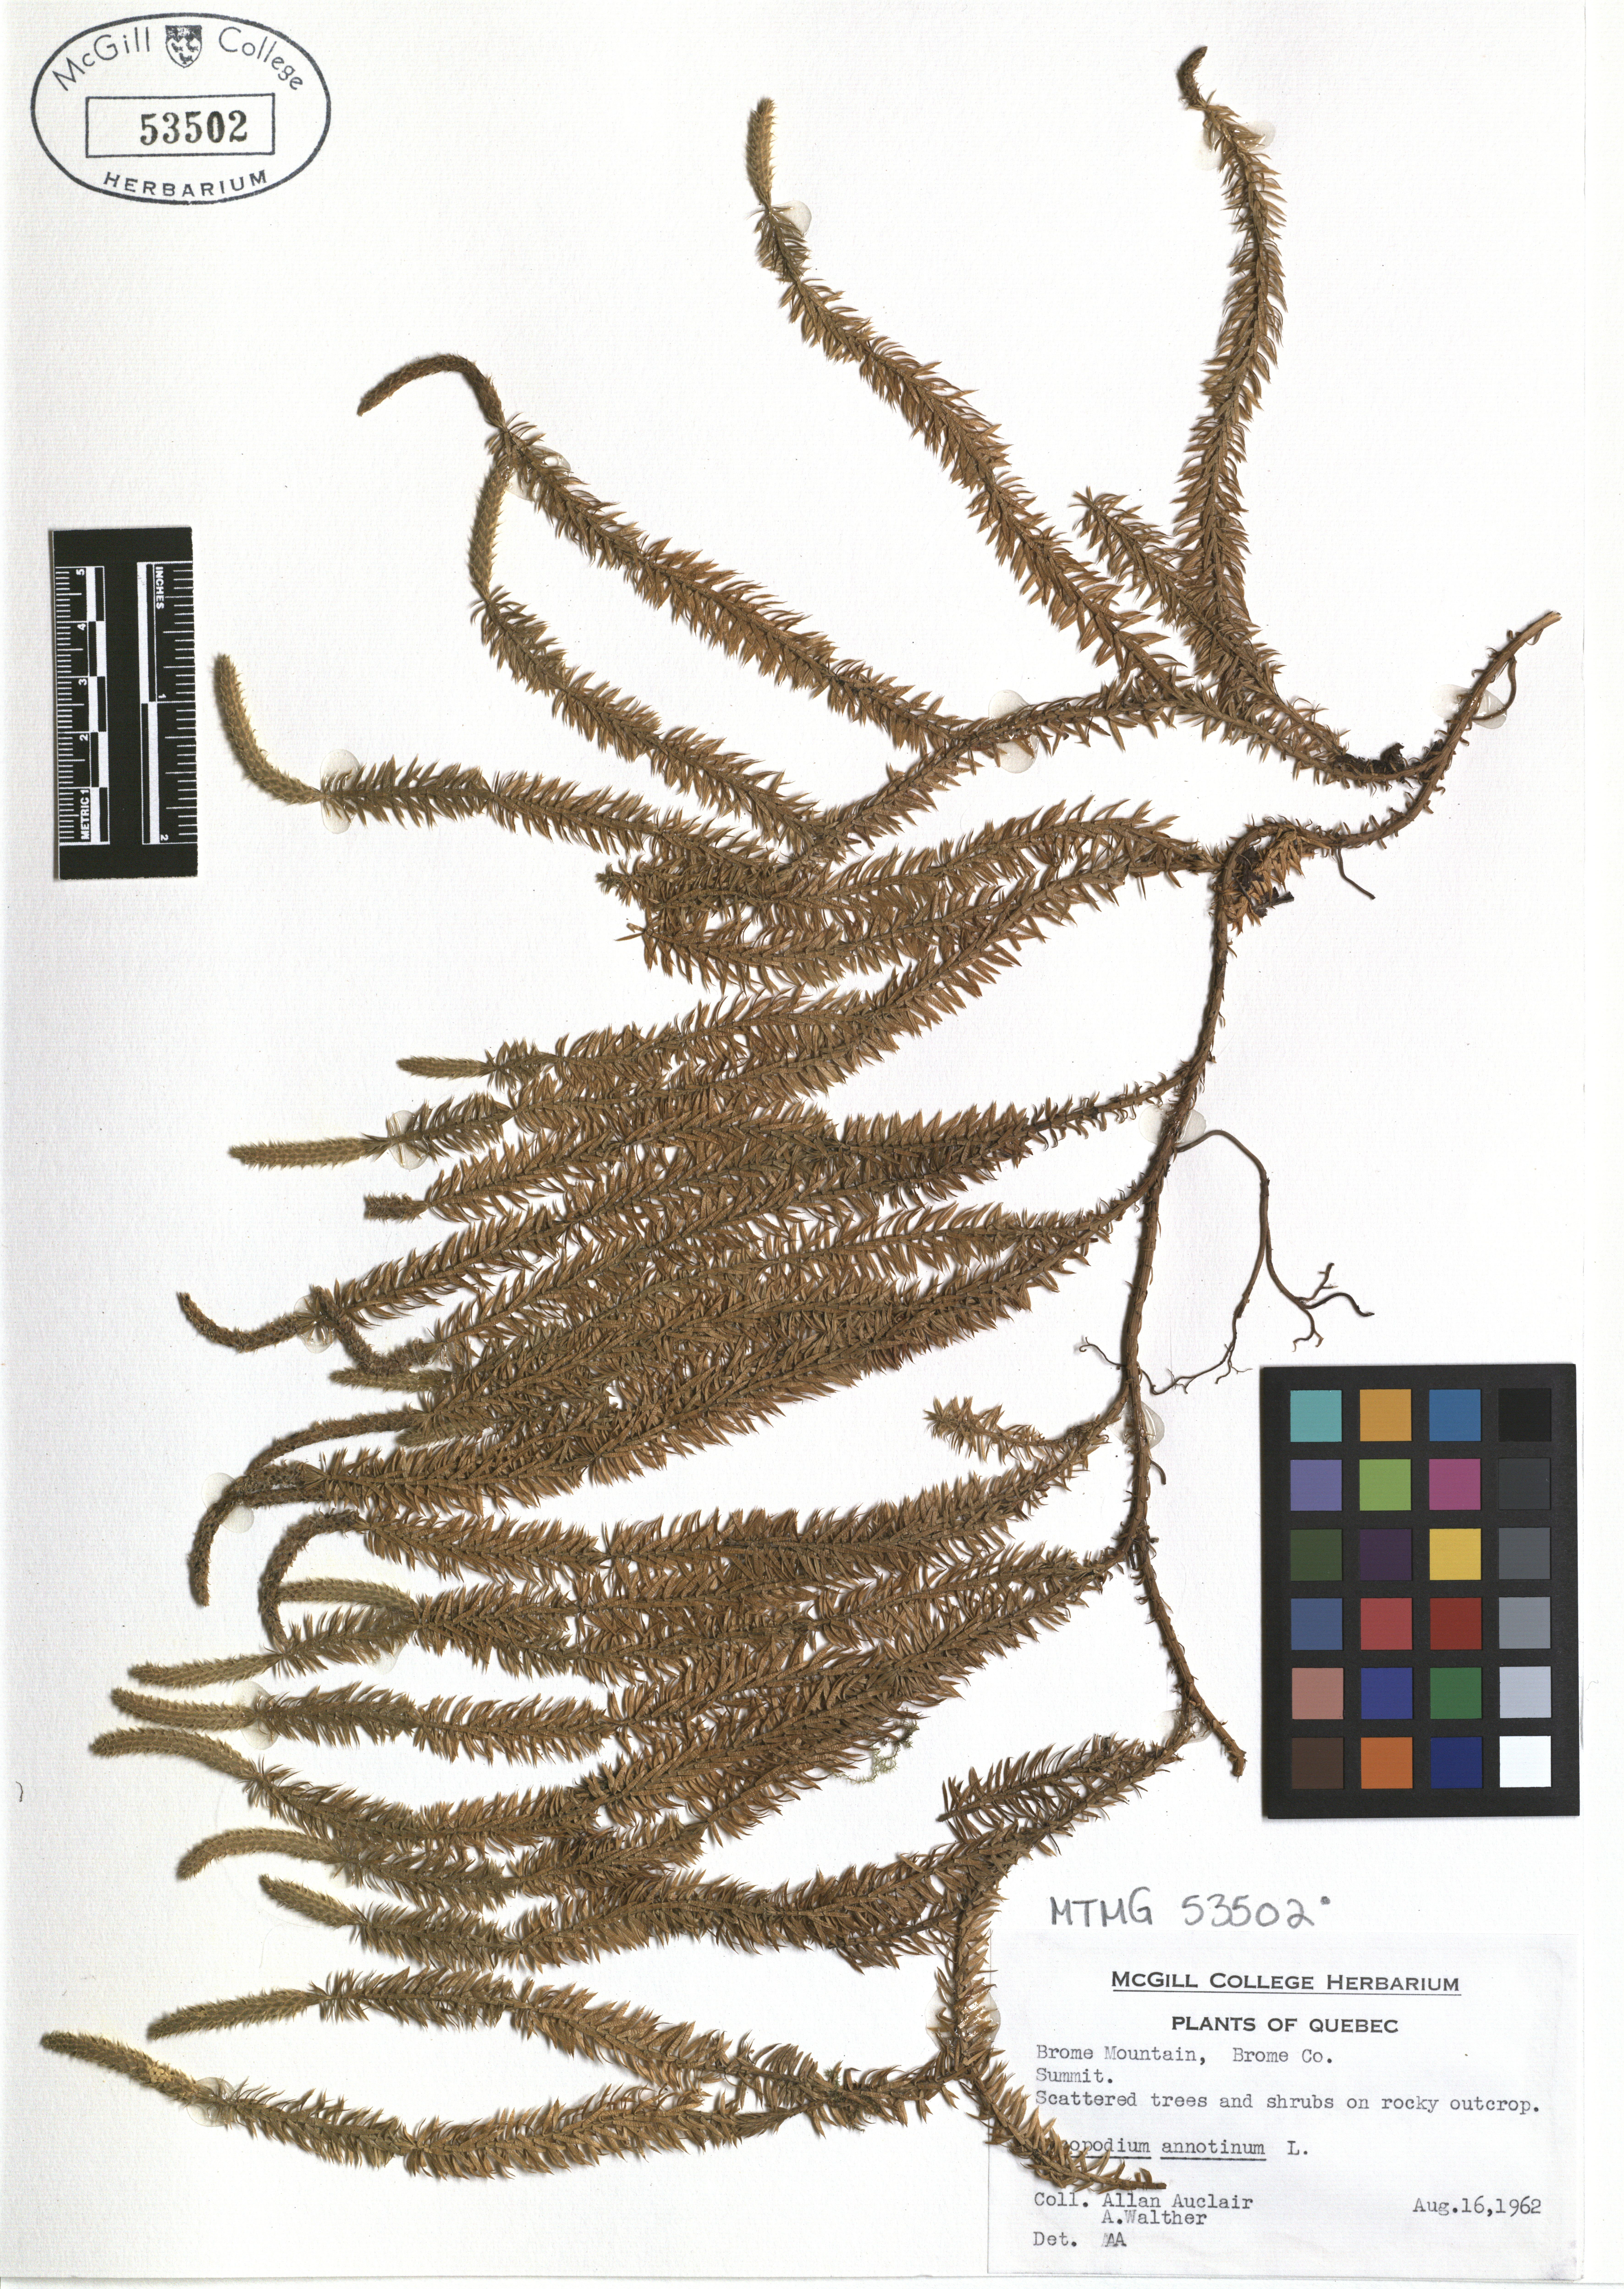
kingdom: Plantae
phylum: Tracheophyta
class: Lycopodiopsida
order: Lycopodiales
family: Lycopodiaceae
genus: Spinulum
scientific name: Spinulum annotinum
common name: Interrupted club-moss
